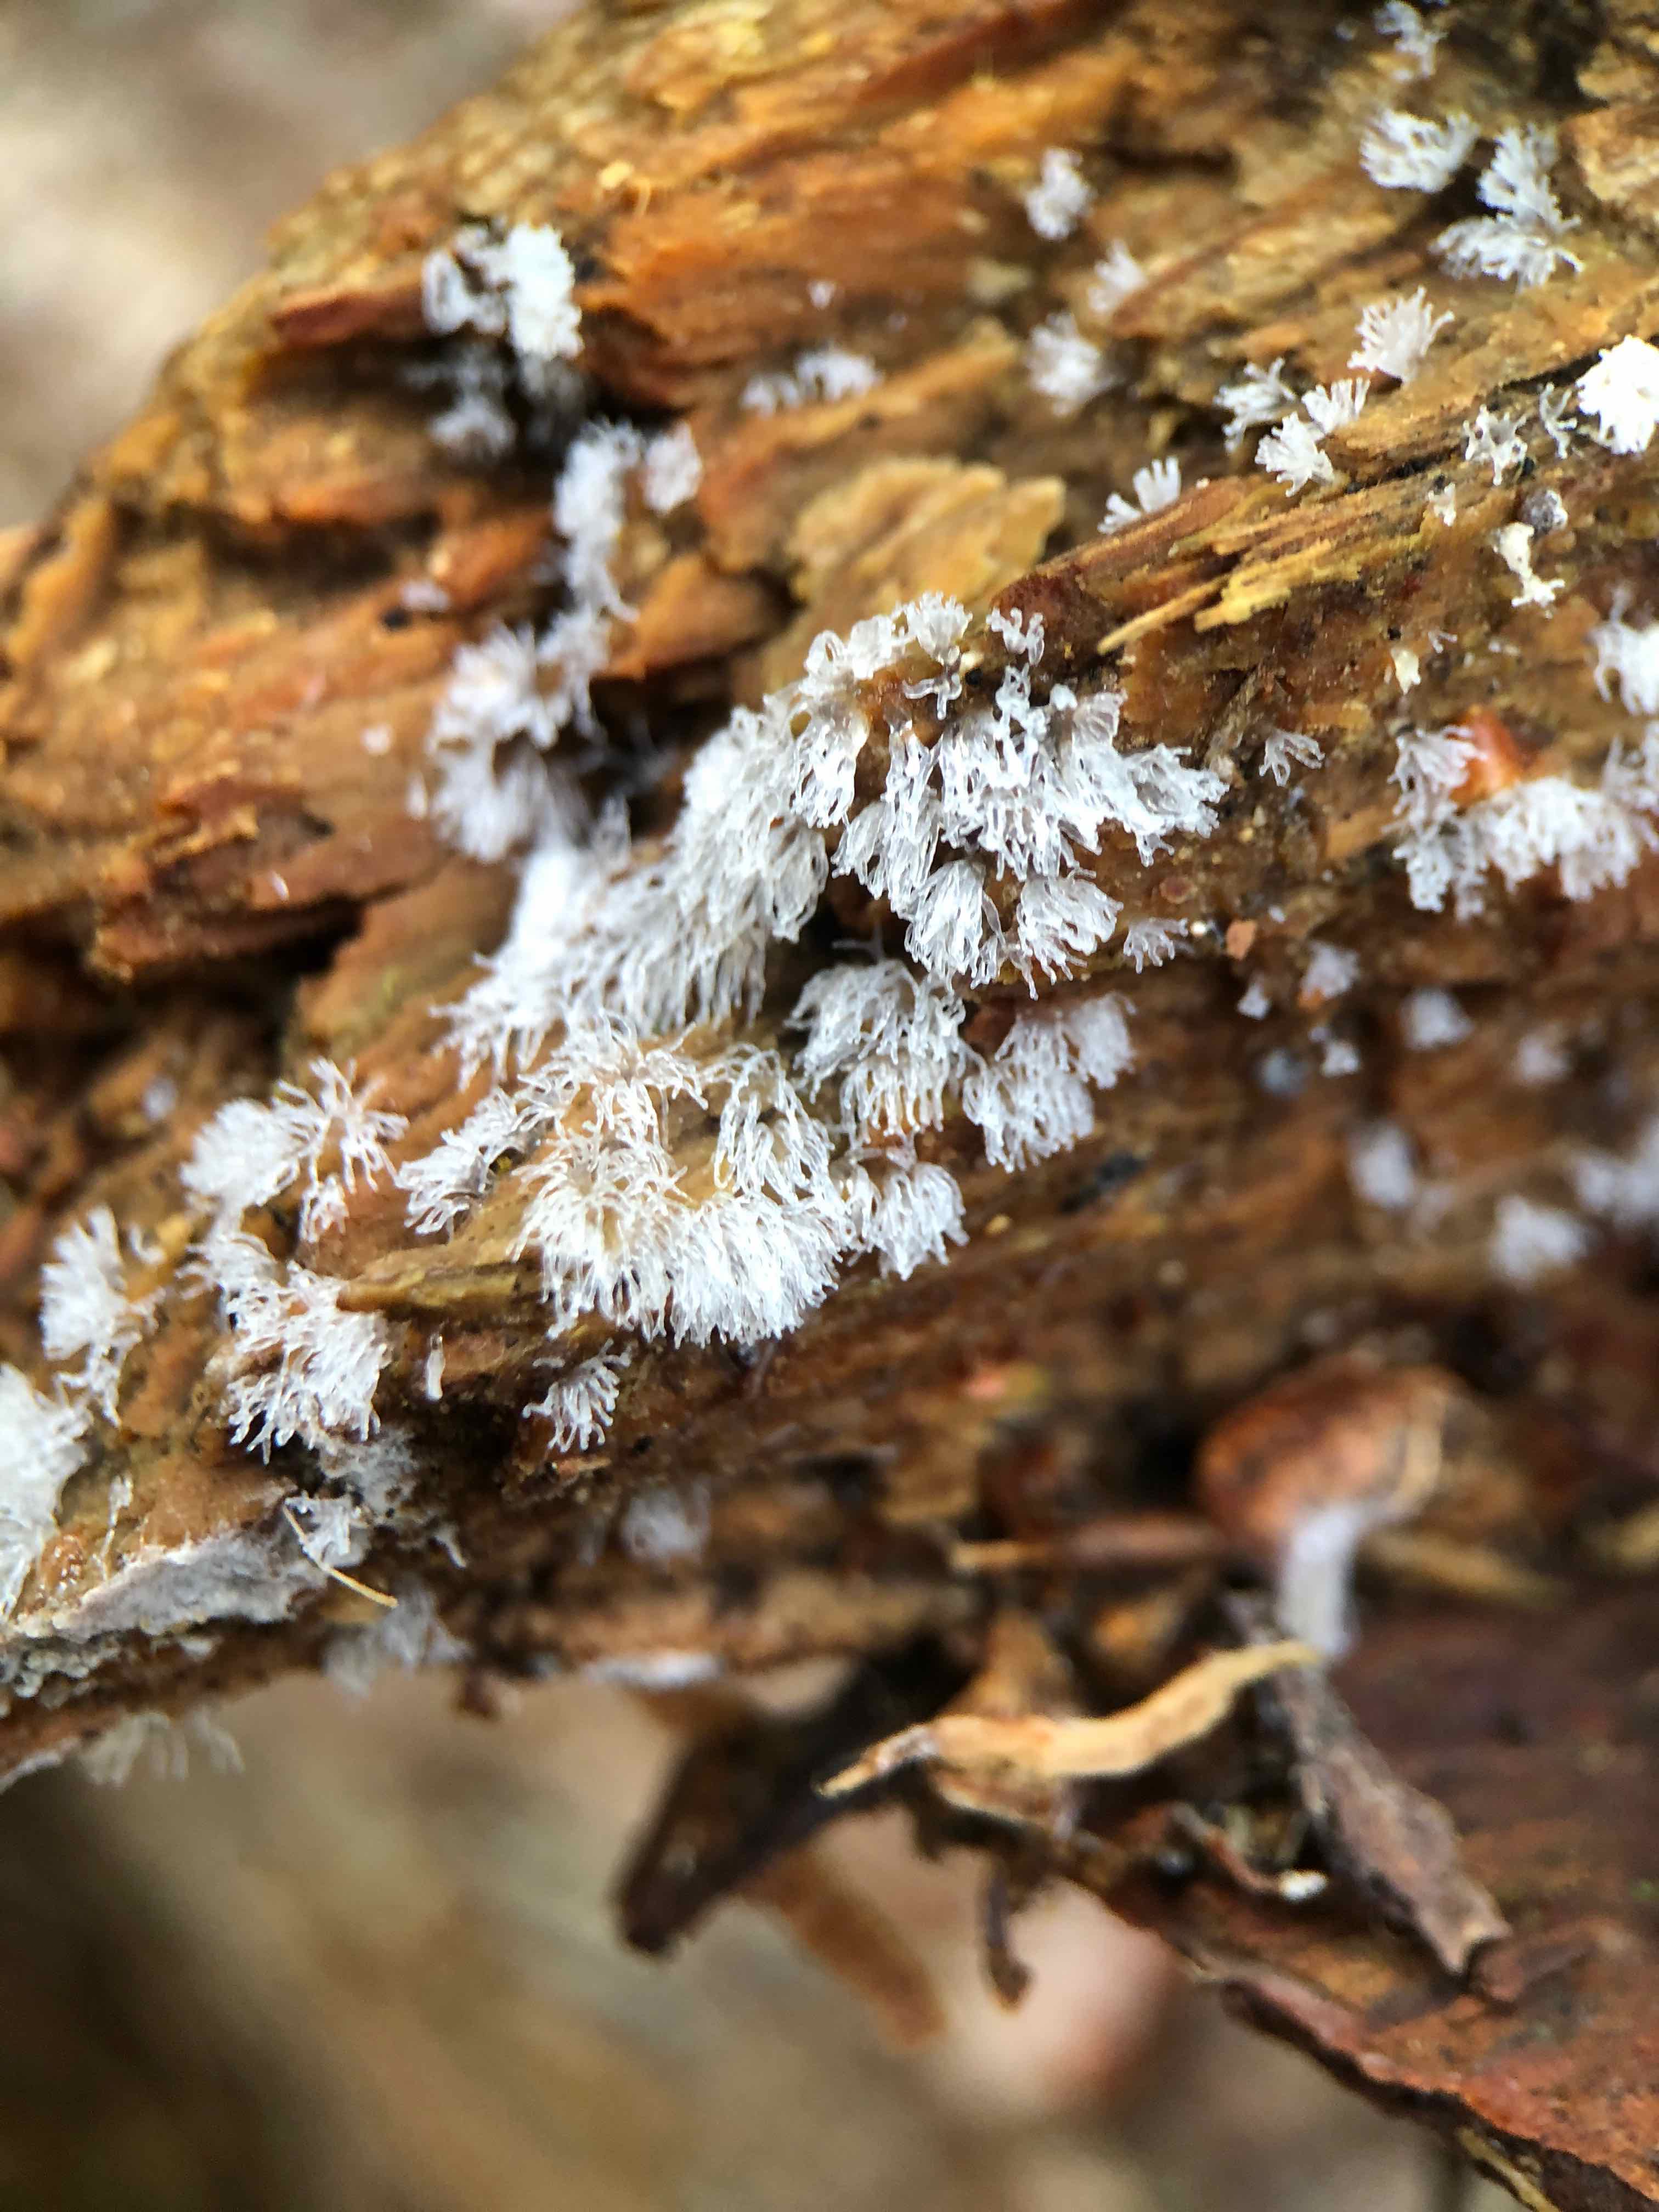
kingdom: Protozoa
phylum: Mycetozoa
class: Protosteliomycetes
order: Ceratiomyxales
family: Ceratiomyxaceae
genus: Ceratiomyxa
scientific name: Ceratiomyxa fruticulosa
